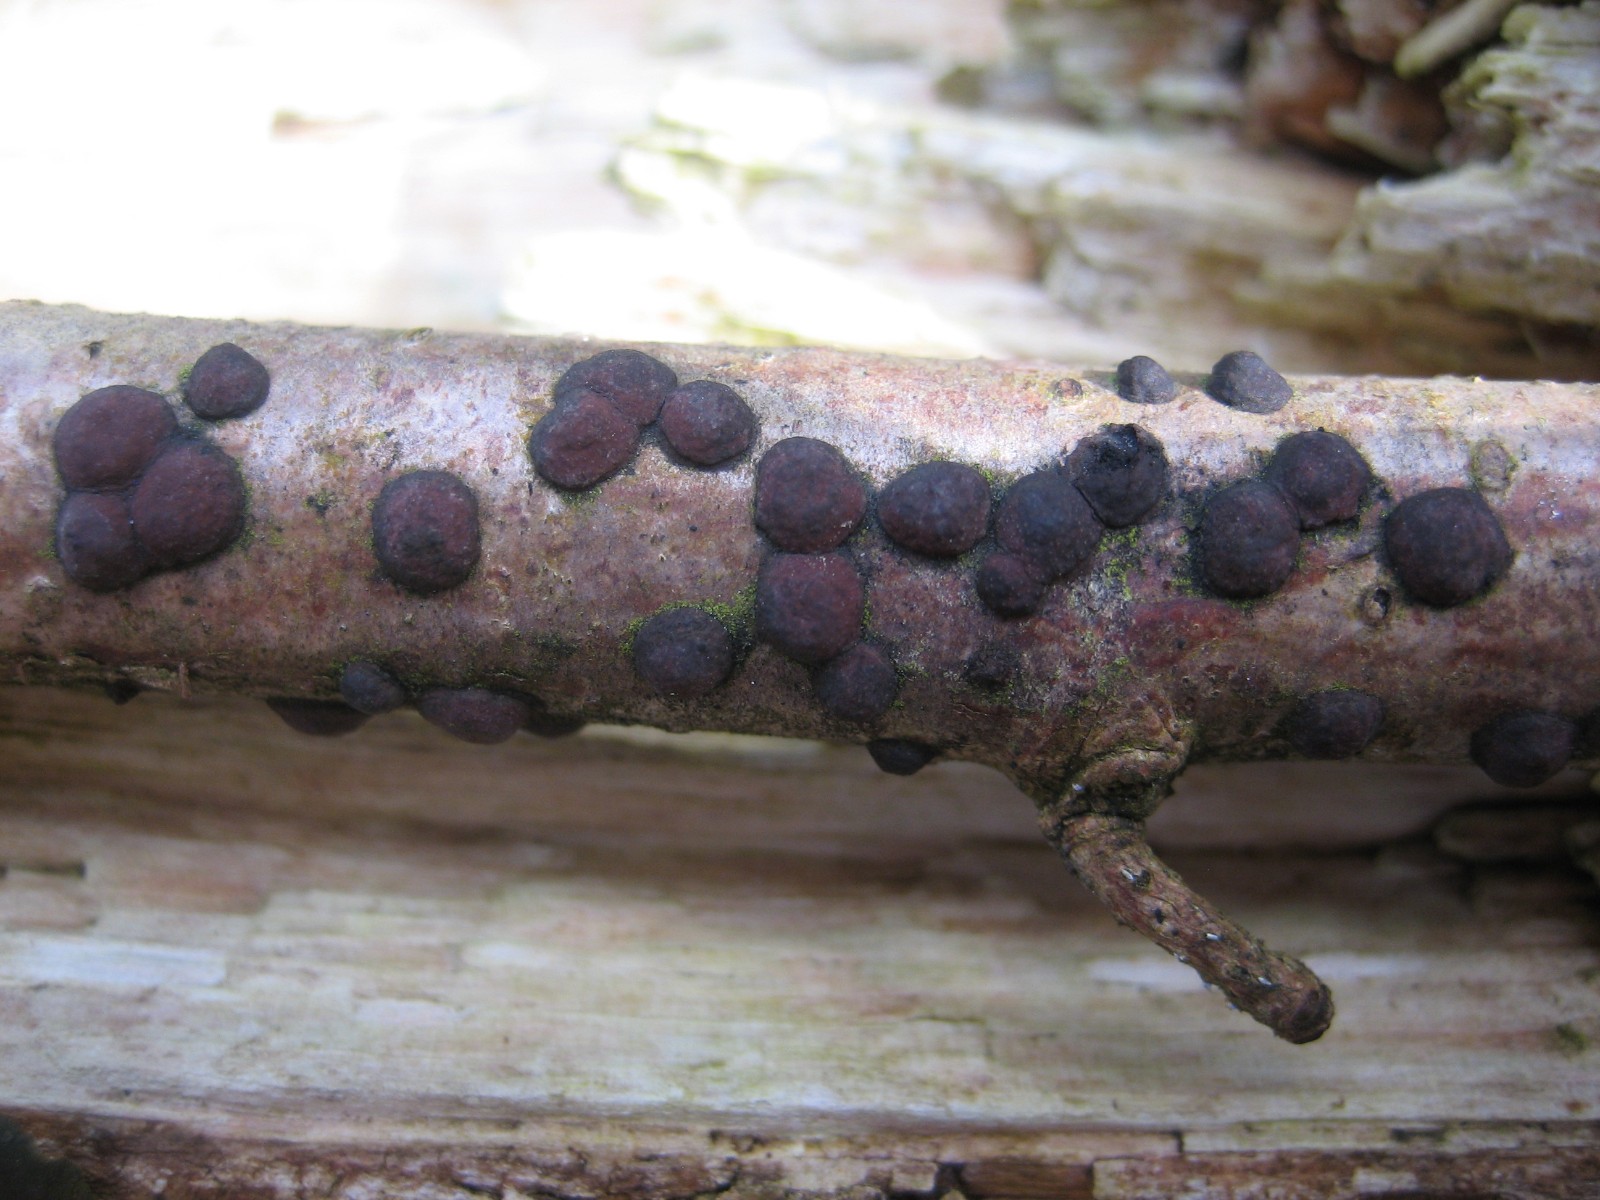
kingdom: Fungi
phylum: Ascomycota
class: Sordariomycetes
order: Xylariales
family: Hypoxylaceae
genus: Hypoxylon
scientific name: Hypoxylon fuscum
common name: kegleformet kulbær
